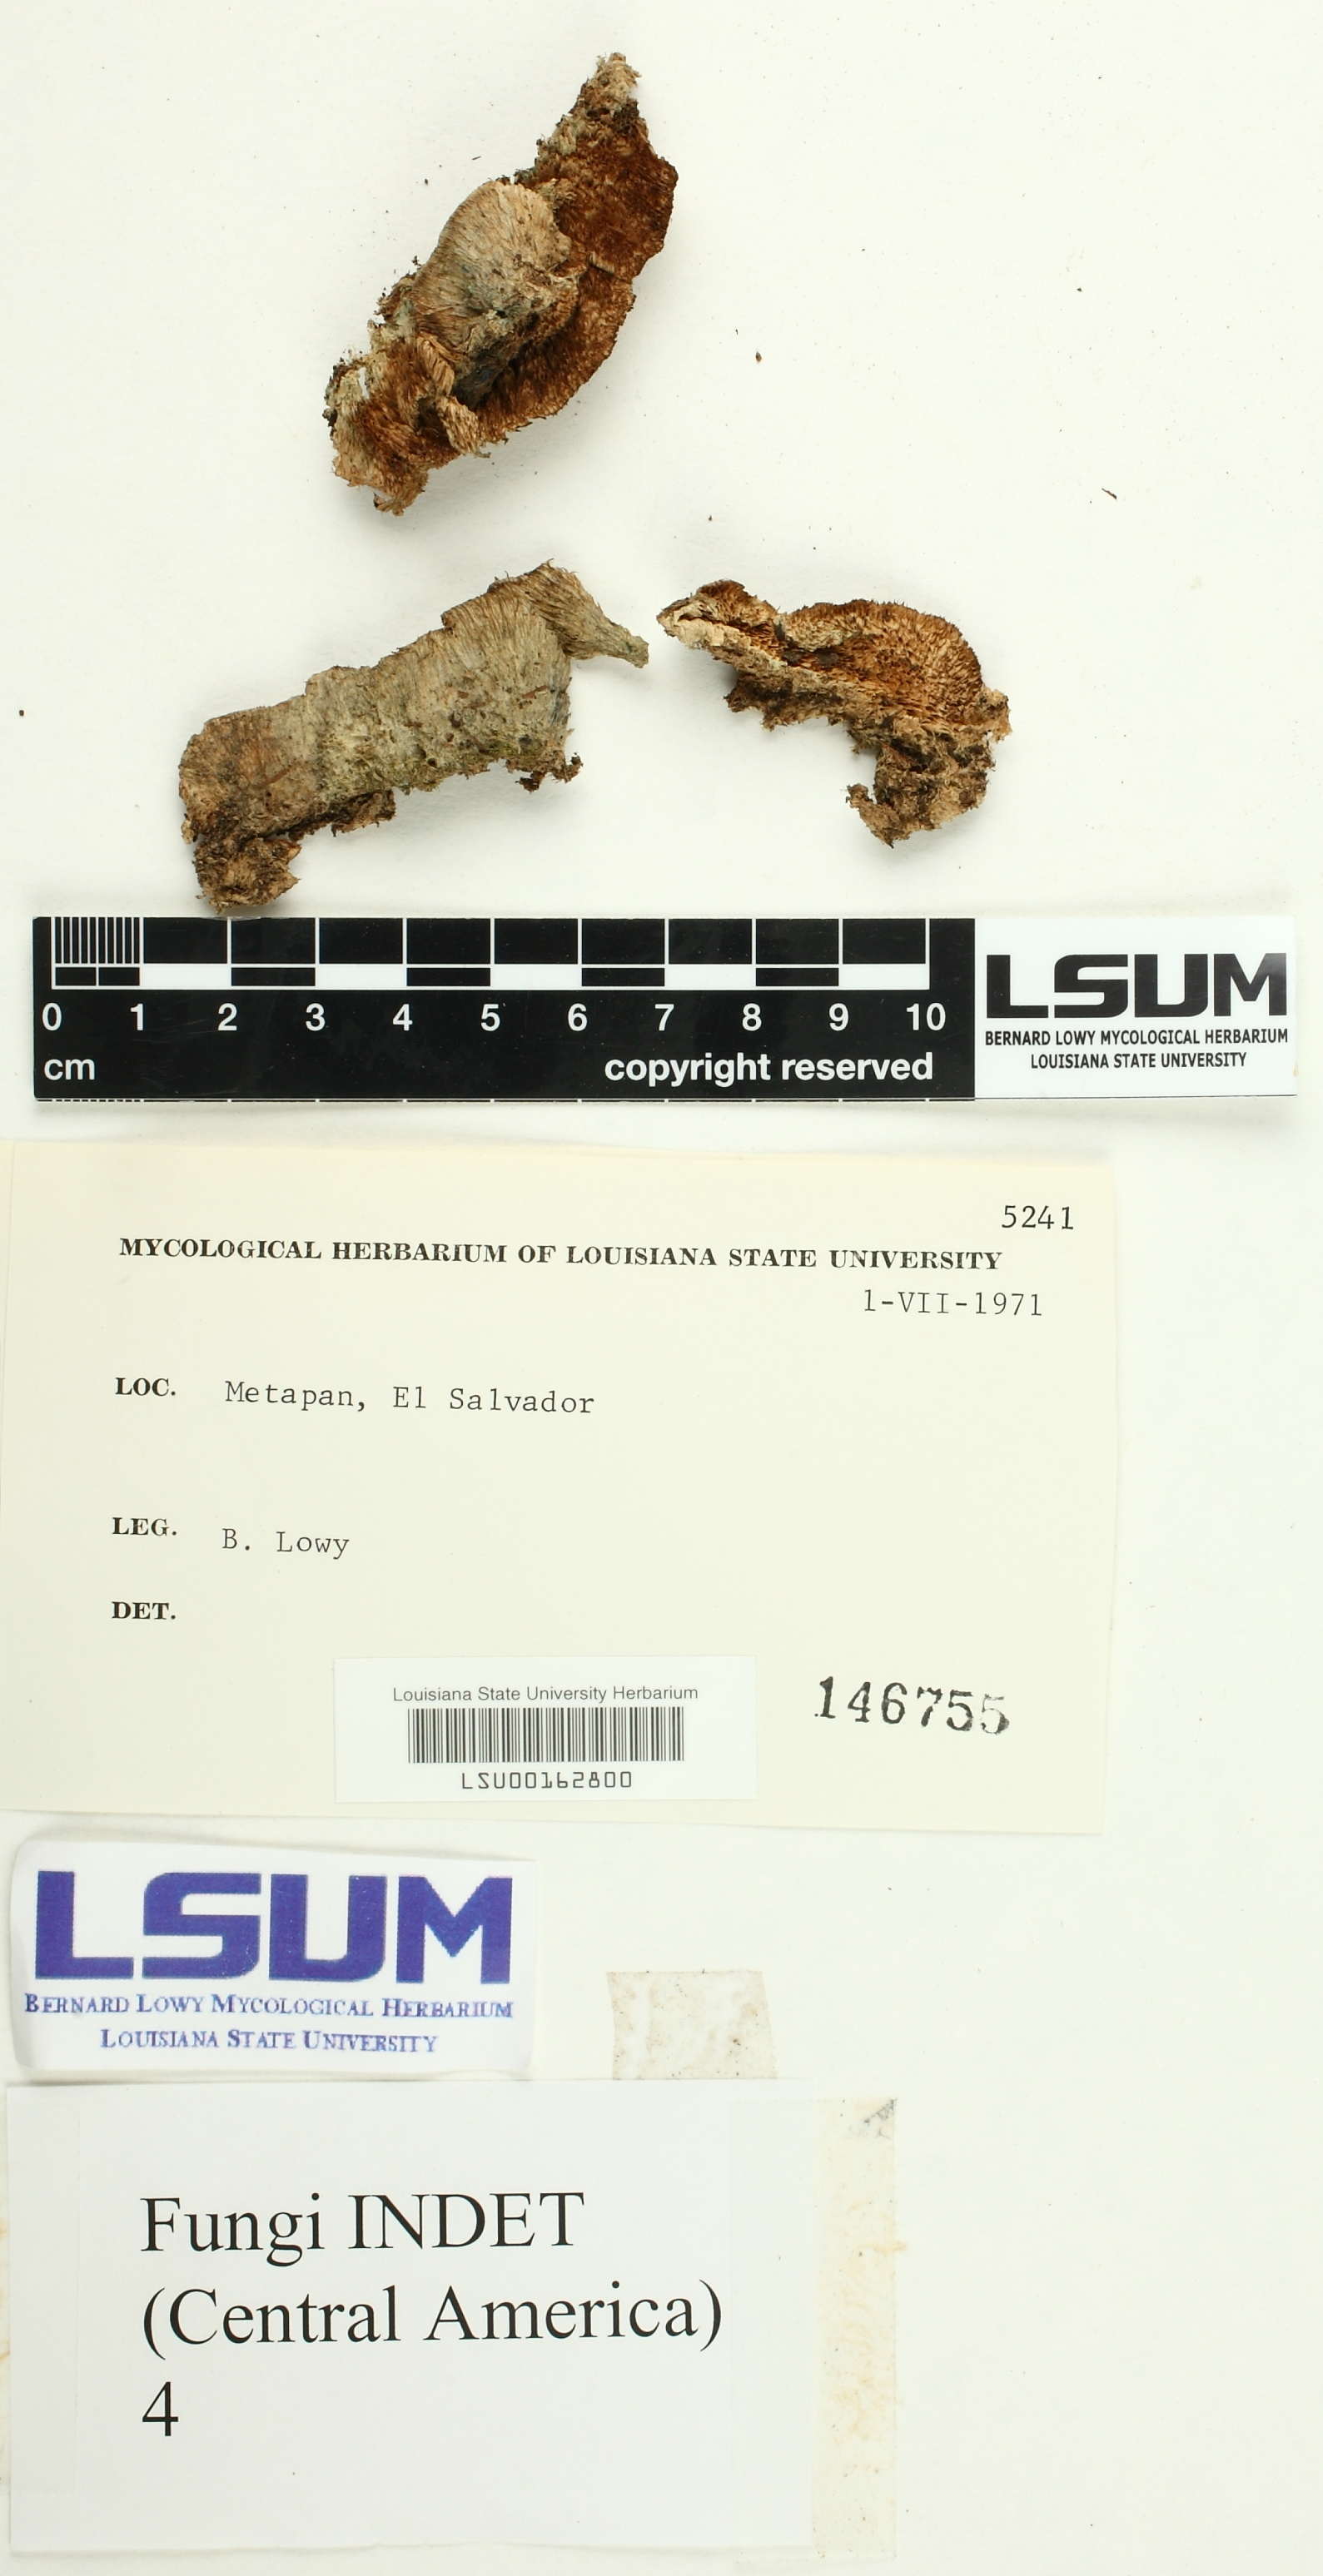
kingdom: Fungi
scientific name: Fungi
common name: Fungi
